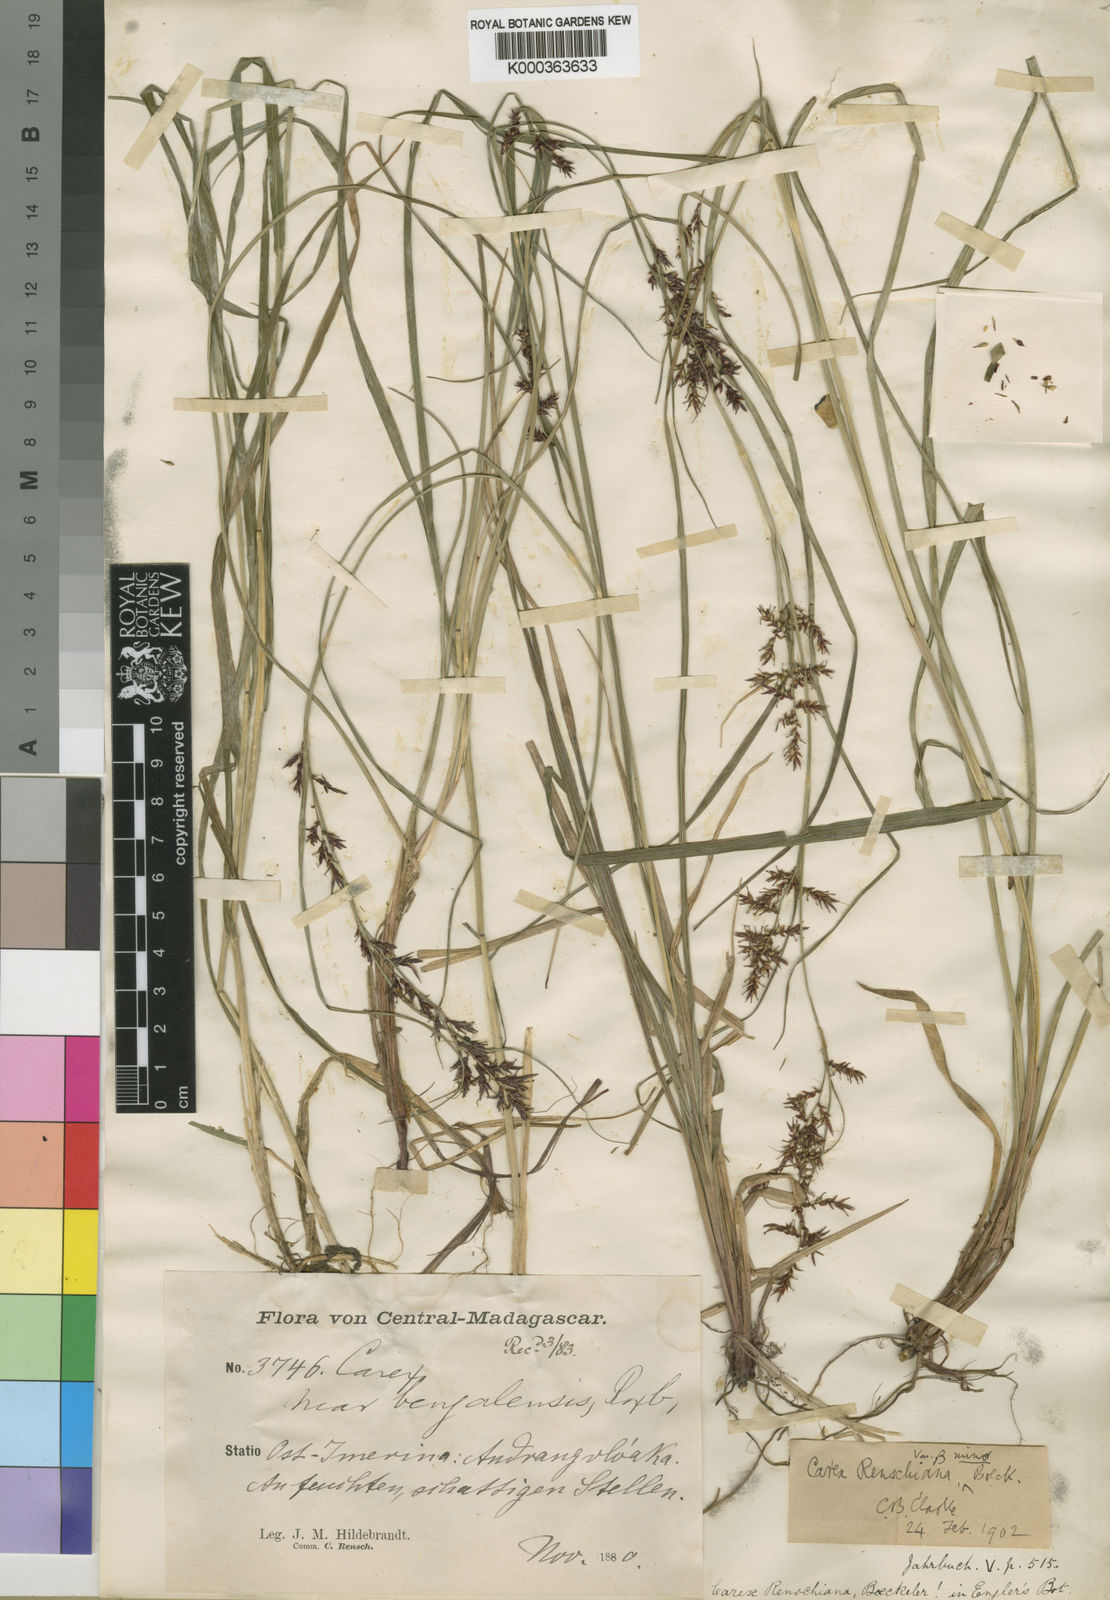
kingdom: Plantae
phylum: Tracheophyta
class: Liliopsida
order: Poales
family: Cyperaceae
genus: Carex
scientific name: Carex renschiana
